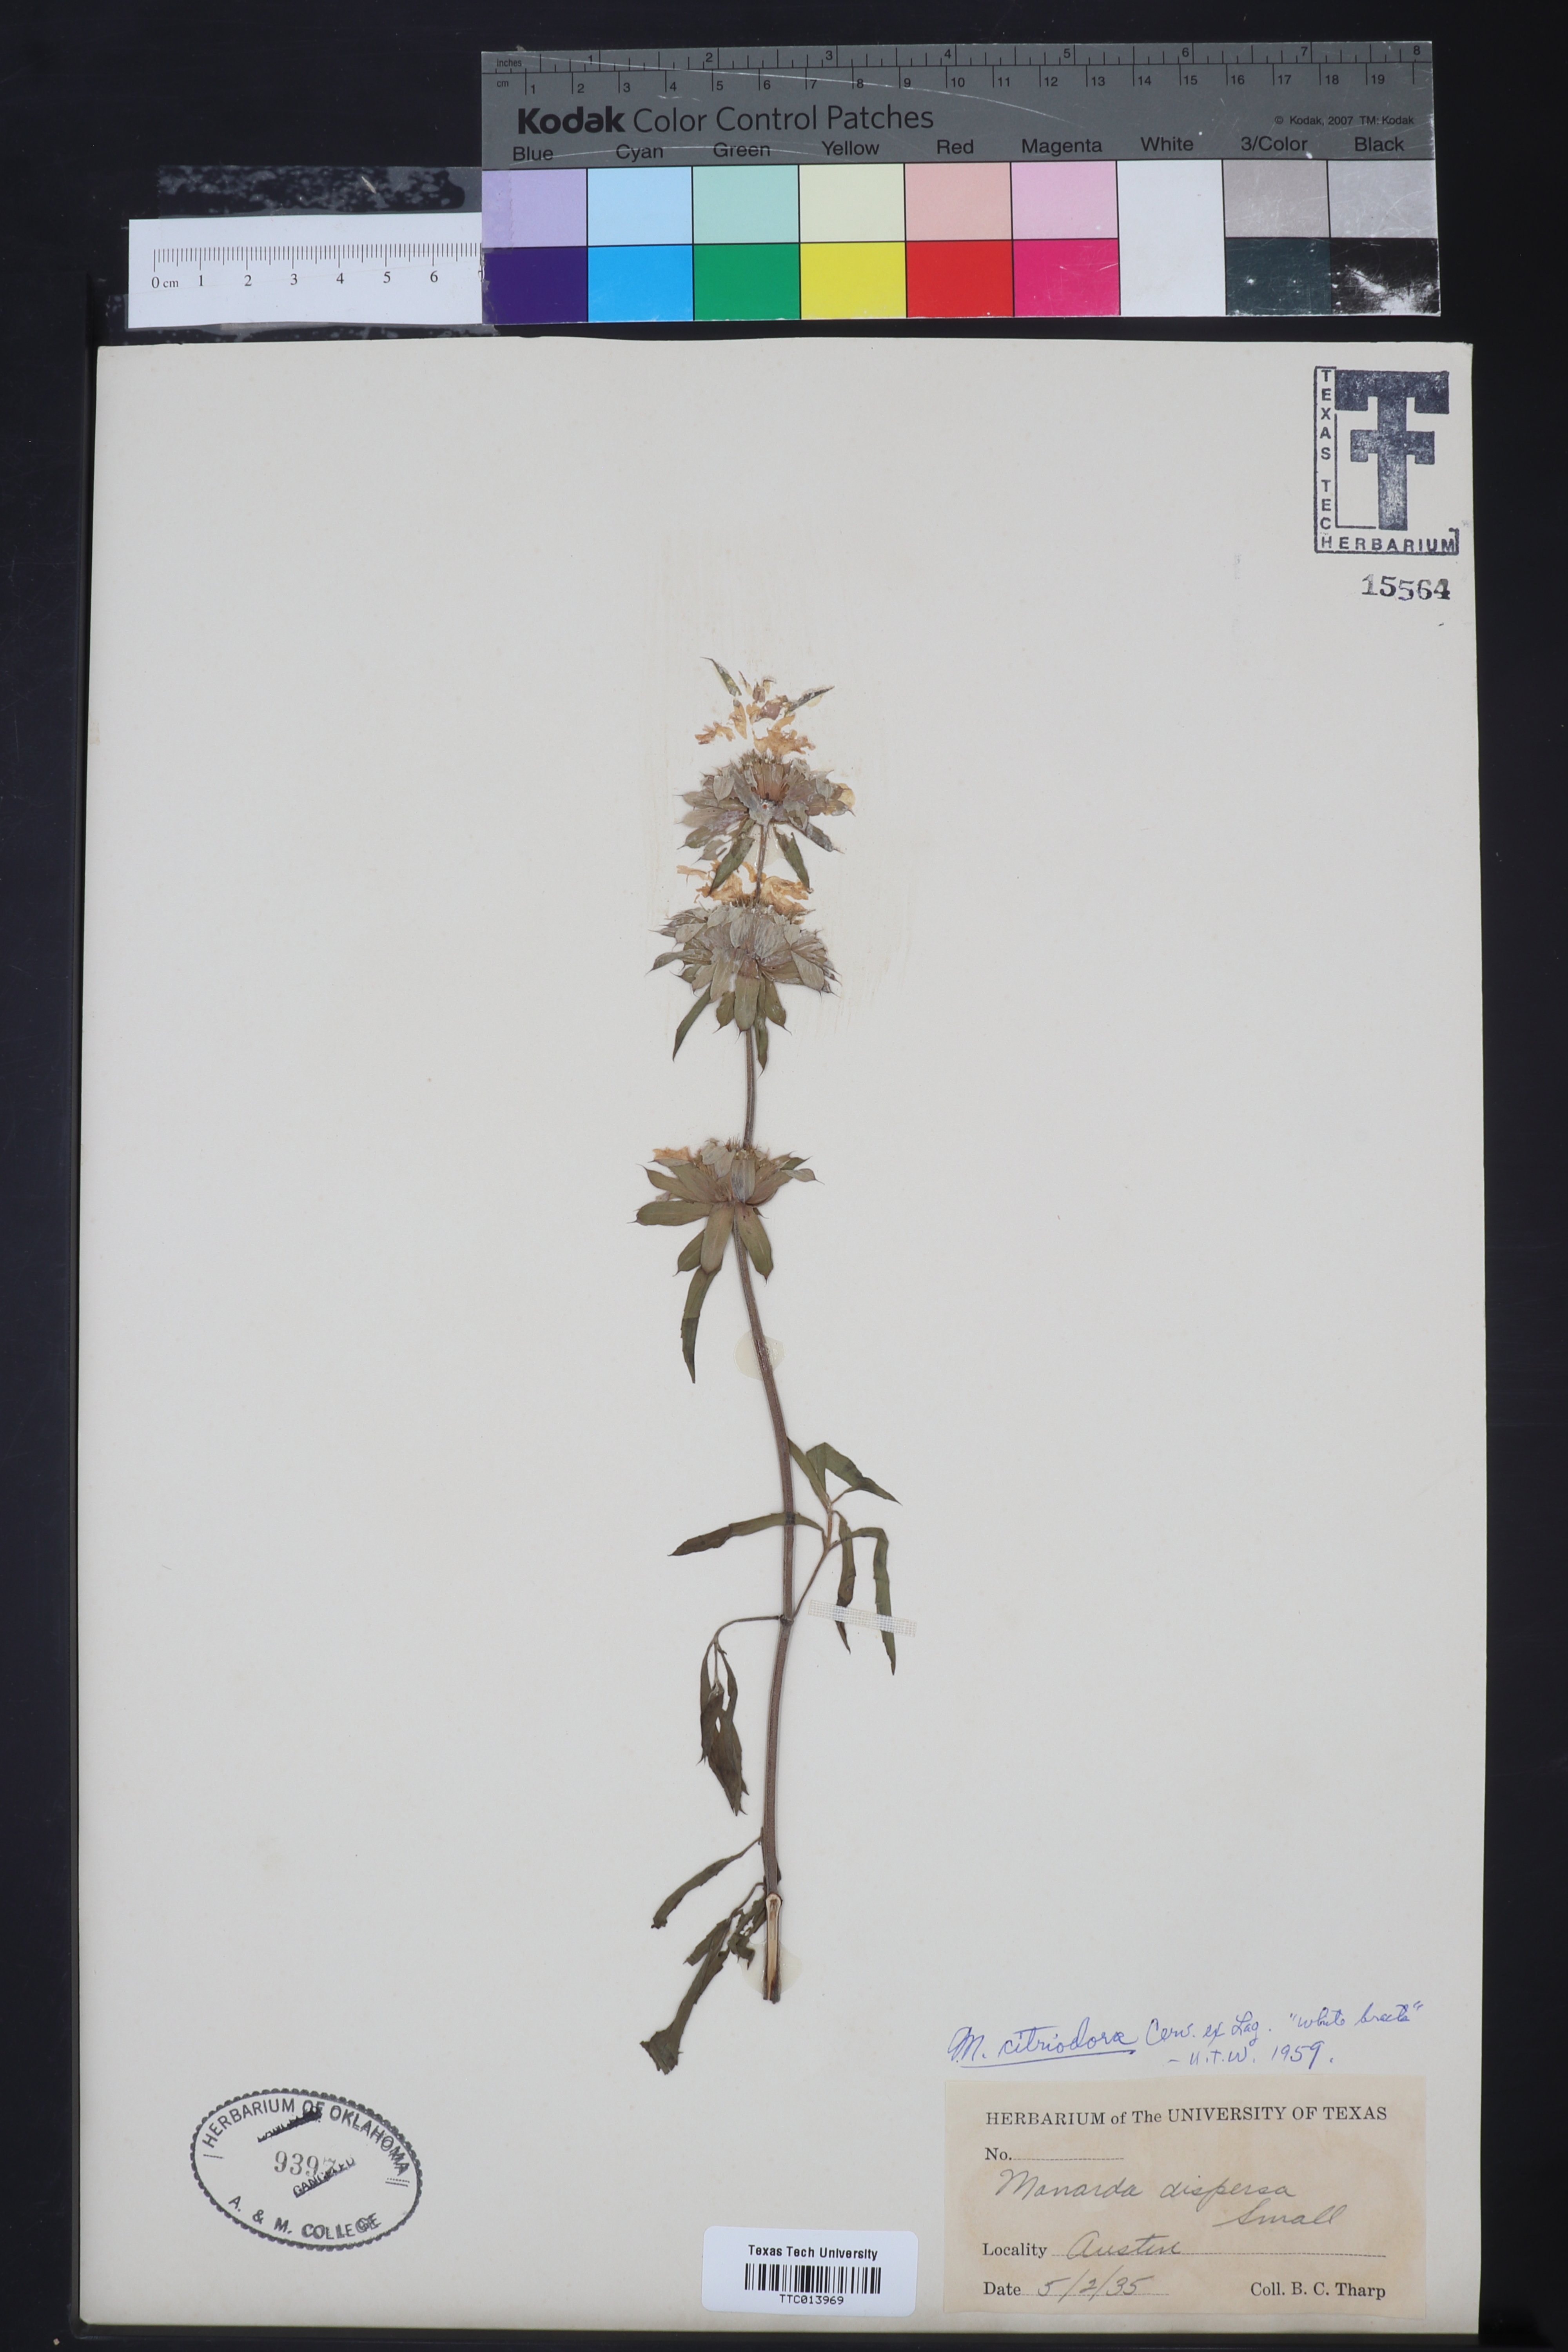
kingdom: Plantae
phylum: Tracheophyta
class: Magnoliopsida
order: Lamiales
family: Lamiaceae
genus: Monarda
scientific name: Monarda citriodora
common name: Lemon beebalm
